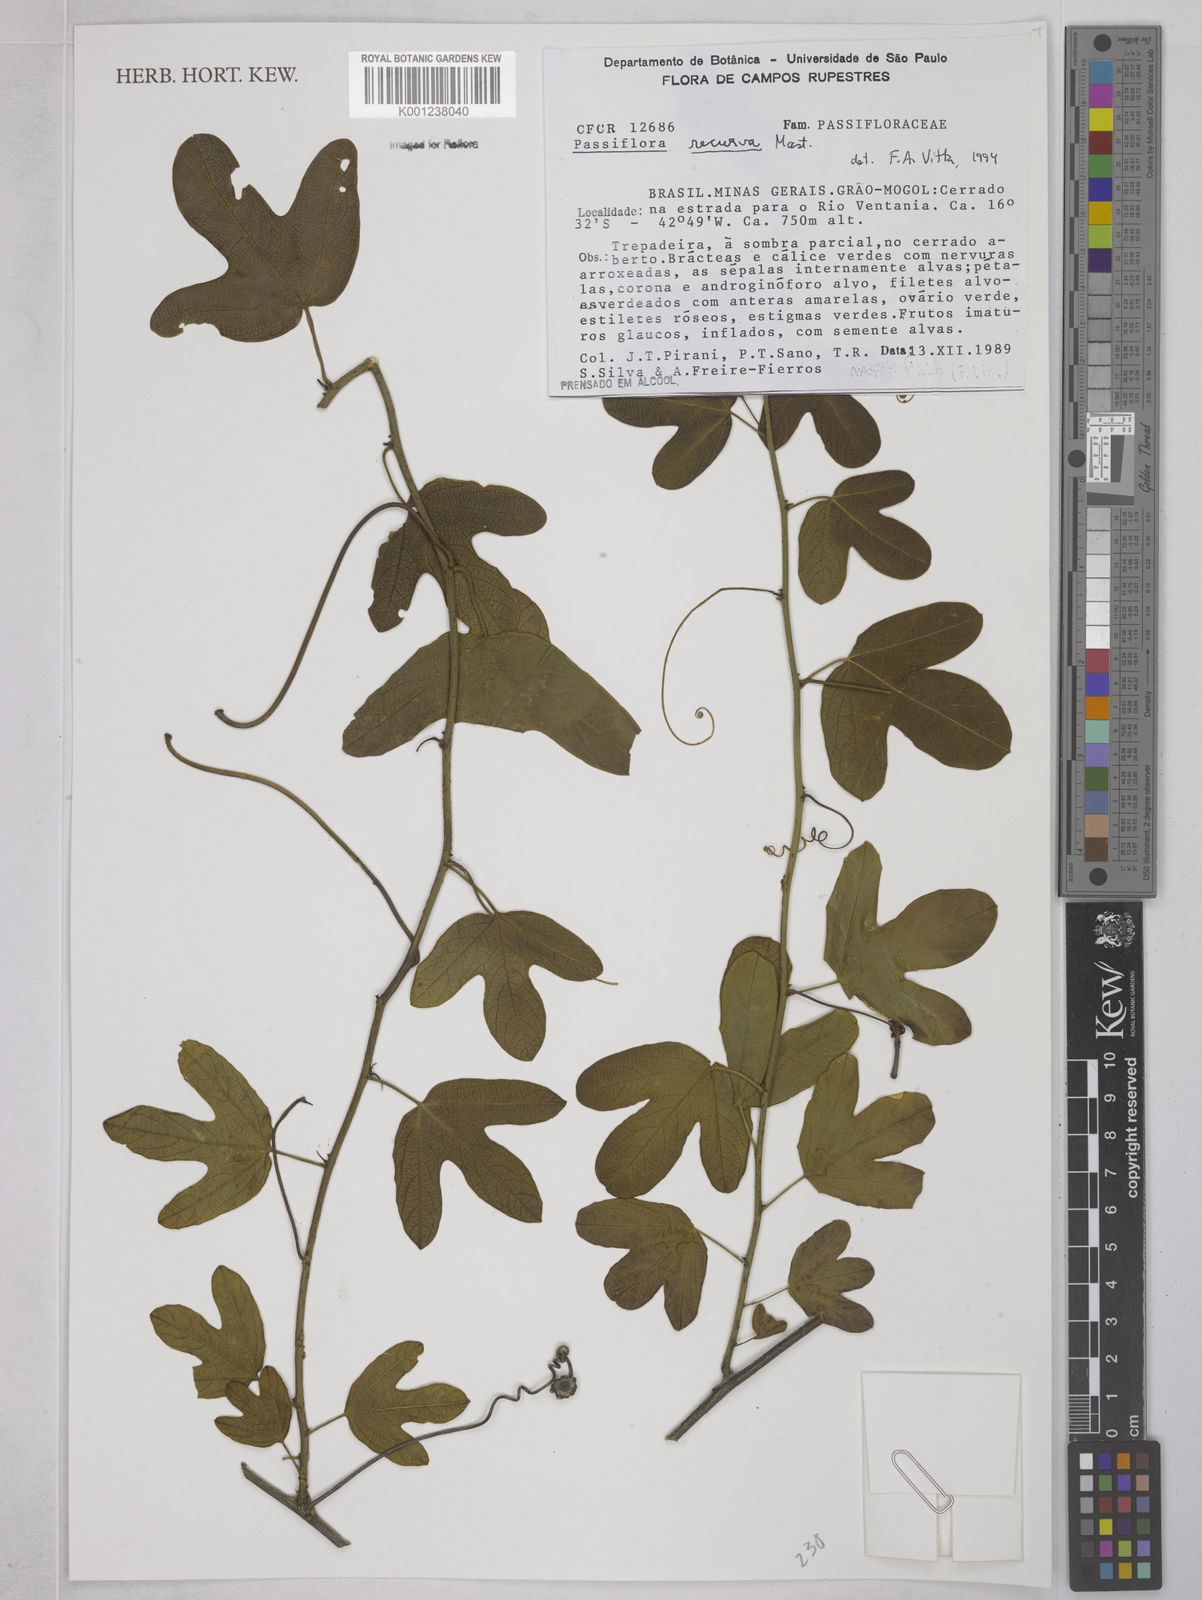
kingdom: Plantae
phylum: Tracheophyta
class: Magnoliopsida
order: Malpighiales
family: Passifloraceae
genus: Passiflora
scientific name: Passiflora recurva
